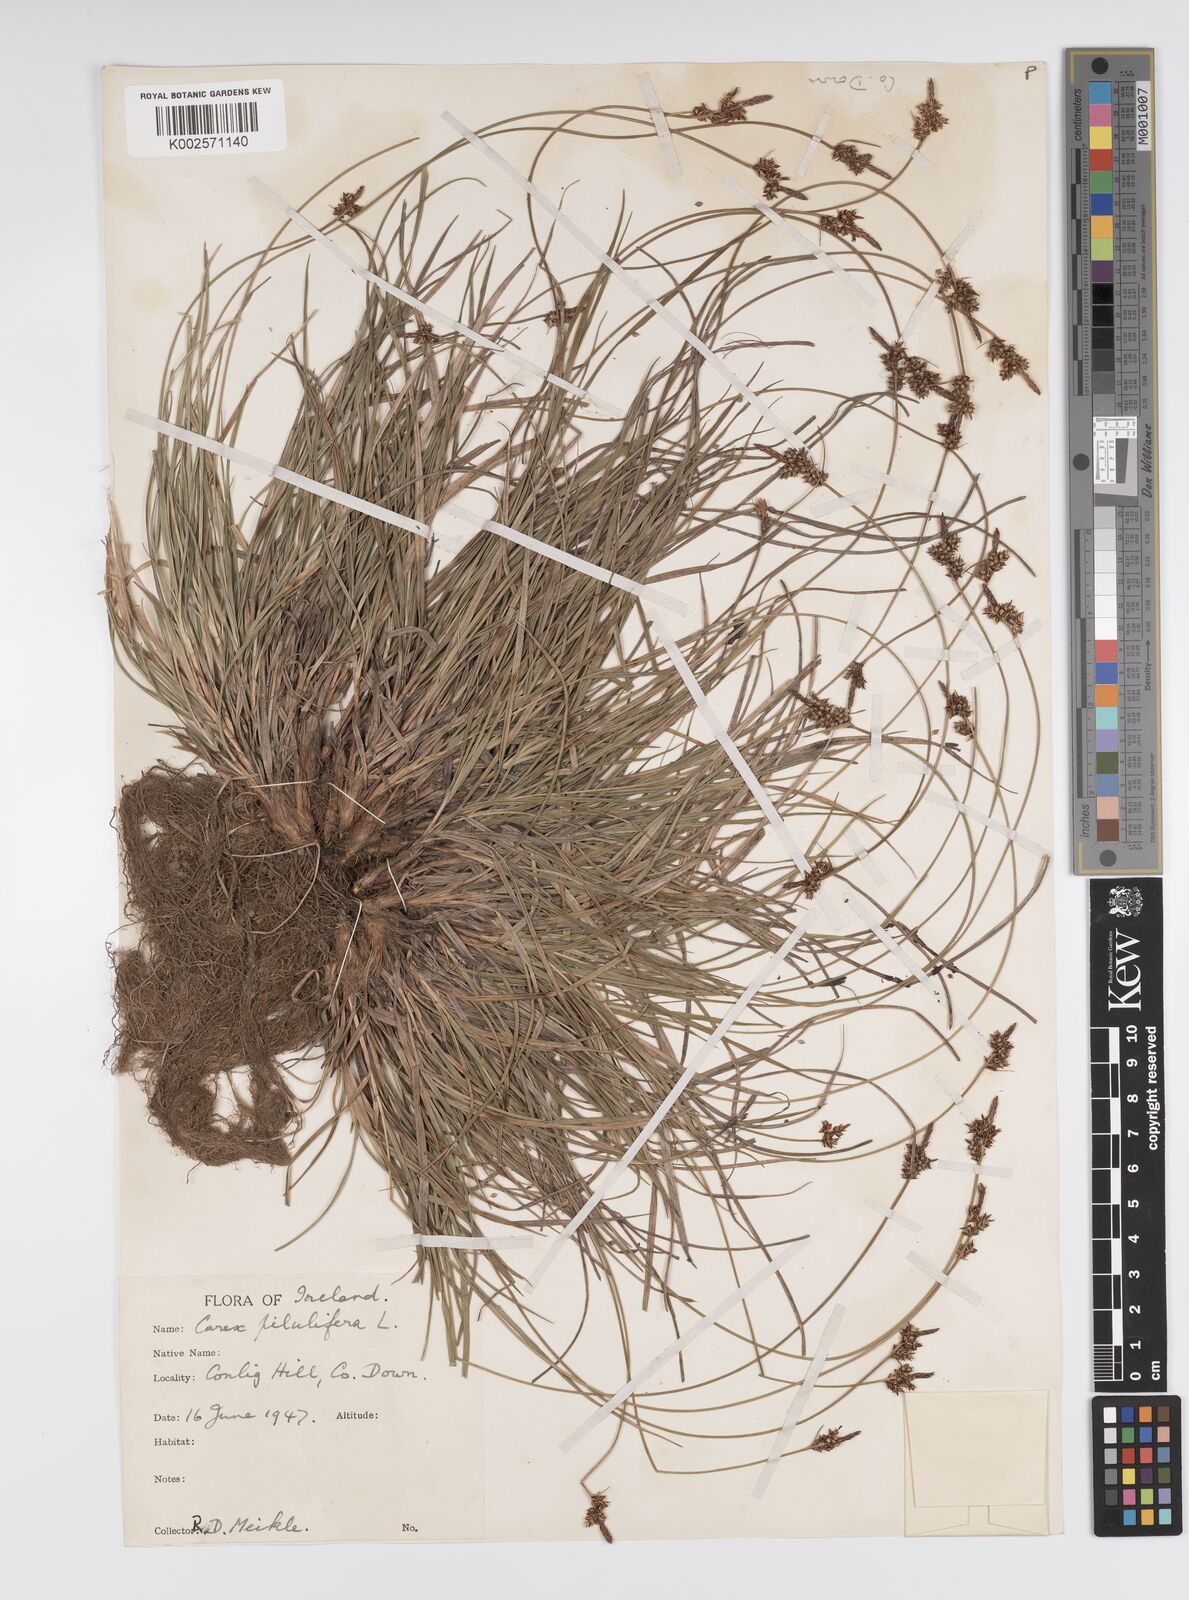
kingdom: Plantae
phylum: Tracheophyta
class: Liliopsida
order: Poales
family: Cyperaceae
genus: Carex
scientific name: Carex pilulifera
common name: Pill sedge
